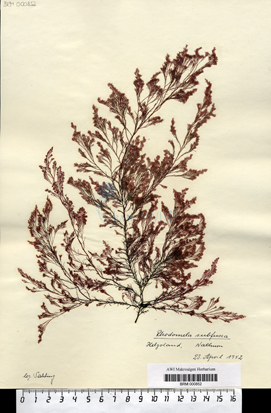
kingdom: Plantae
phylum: Rhodophyta
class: Florideophyceae
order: Ceramiales
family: Rhodomelaceae
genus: Rhodomela
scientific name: Rhodomela confervoides
